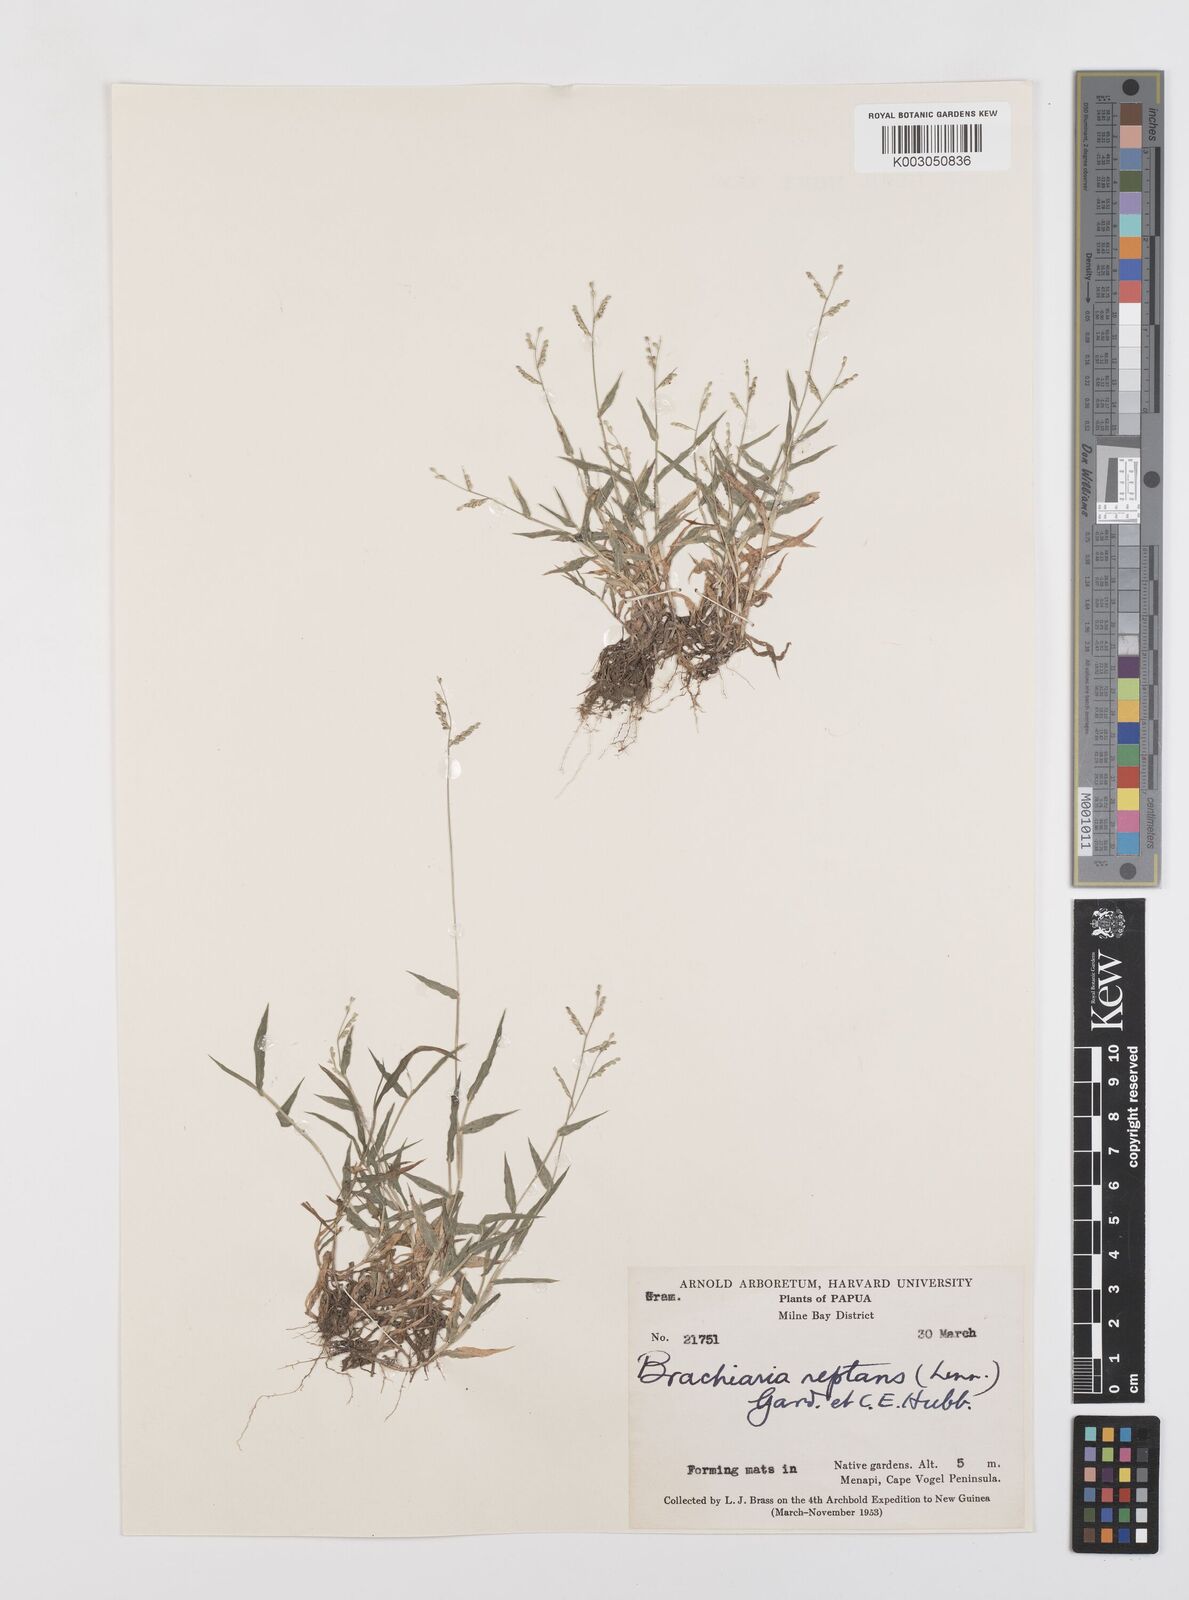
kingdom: Plantae
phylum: Tracheophyta
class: Liliopsida
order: Poales
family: Poaceae
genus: Urochloa
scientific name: Urochloa reptans
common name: Sprawling signalgrass
